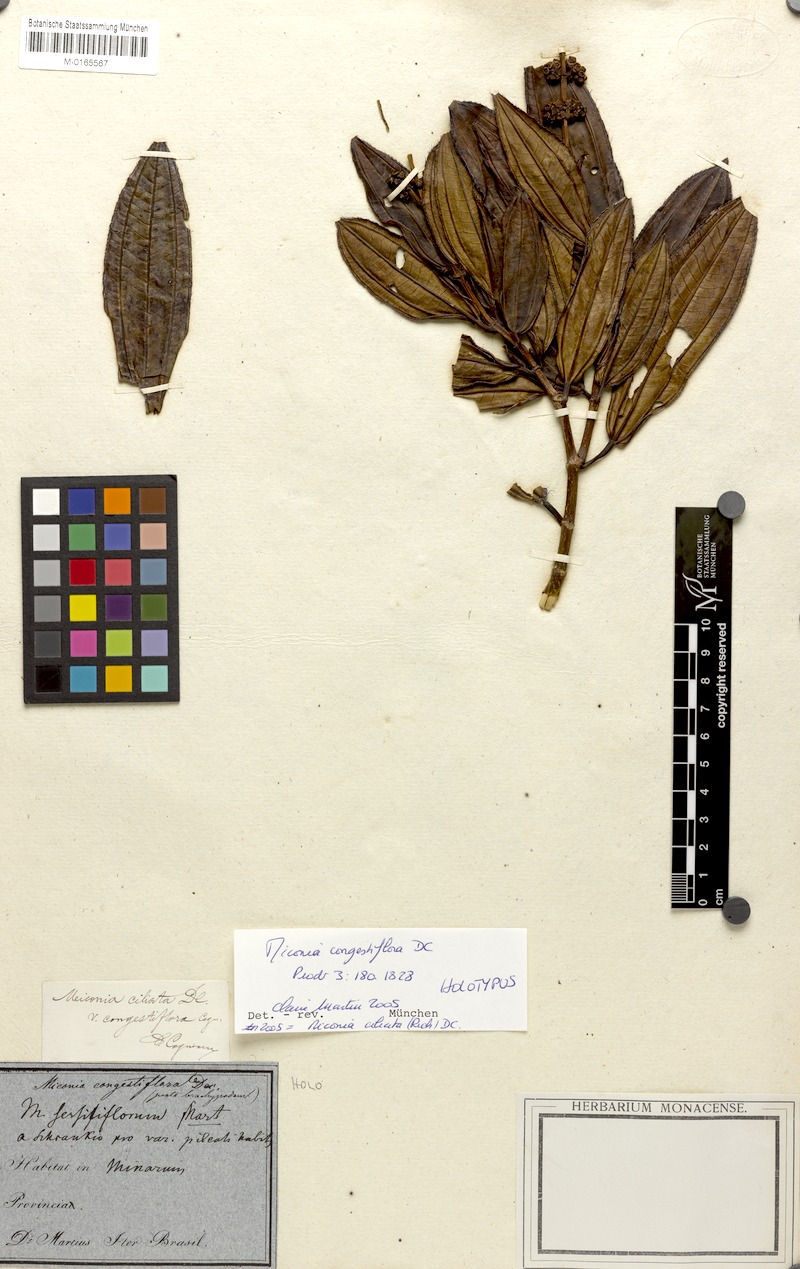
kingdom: Plantae
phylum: Tracheophyta
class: Magnoliopsida
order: Myrtales
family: Melastomataceae
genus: Miconia
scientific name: Miconia ciliata
